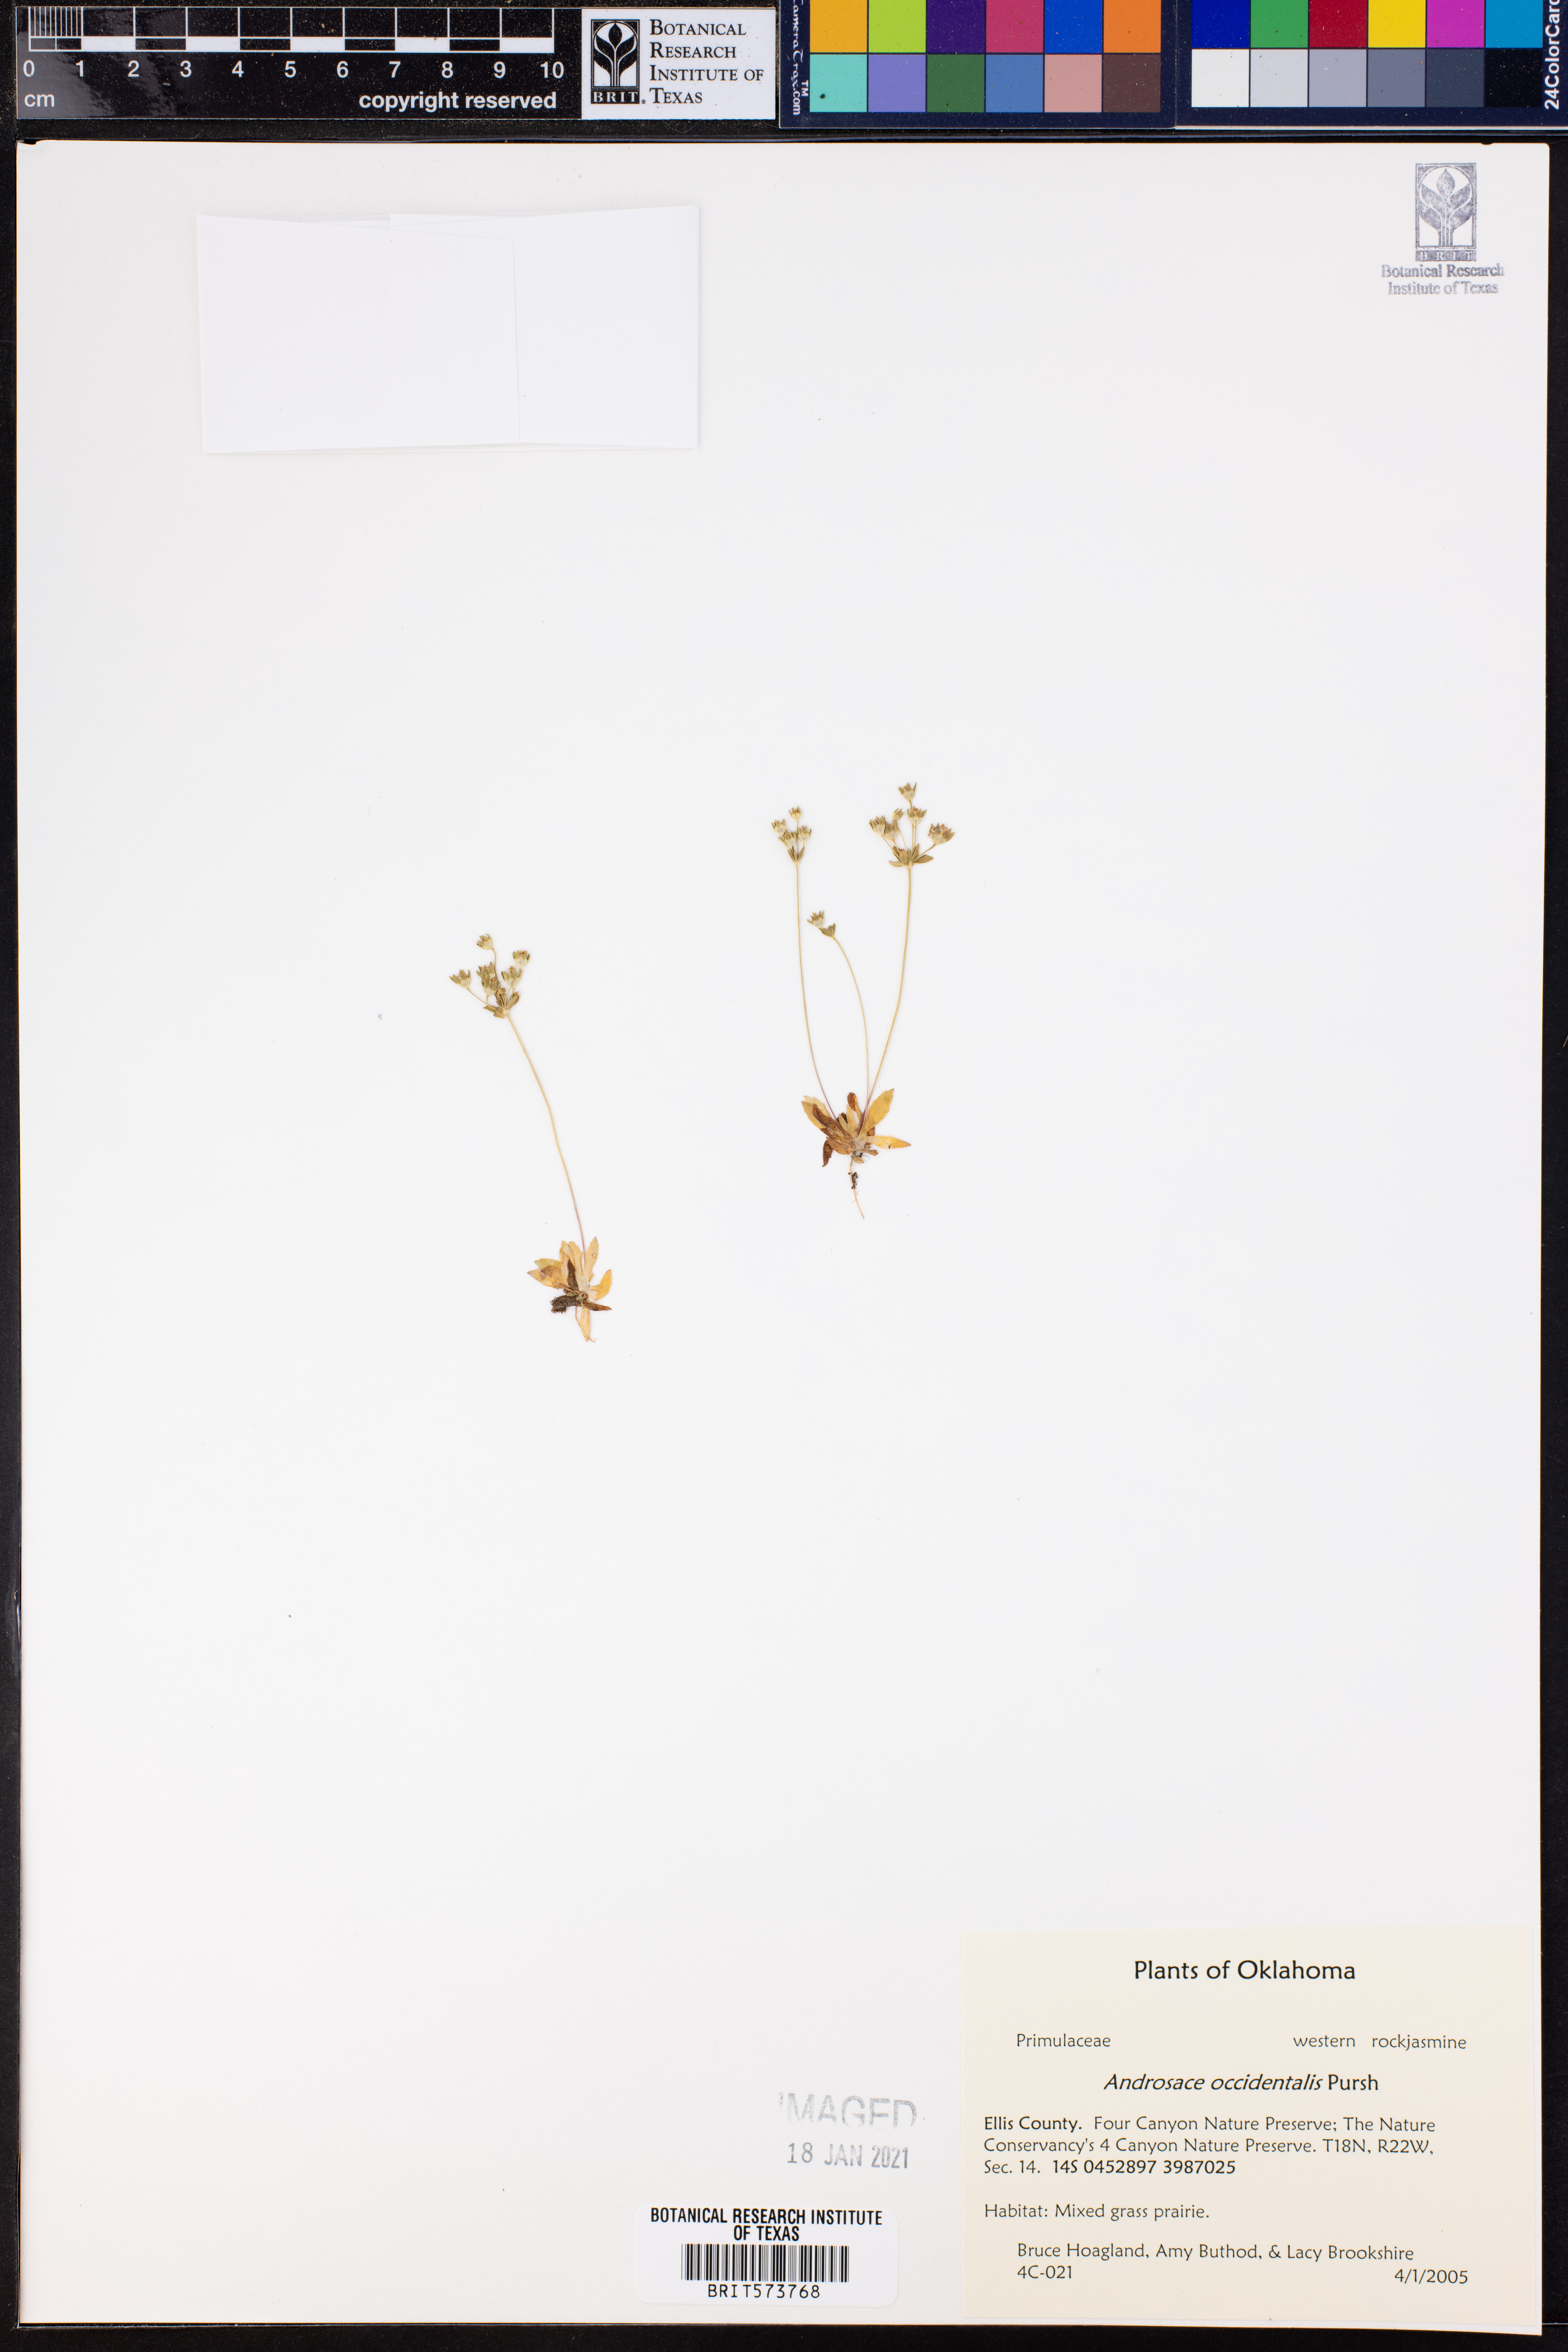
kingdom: Plantae
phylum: Tracheophyta
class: Magnoliopsida
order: Ericales
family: Primulaceae
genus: Androsace
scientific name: Androsace occidentalis
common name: West rock-jasmine
